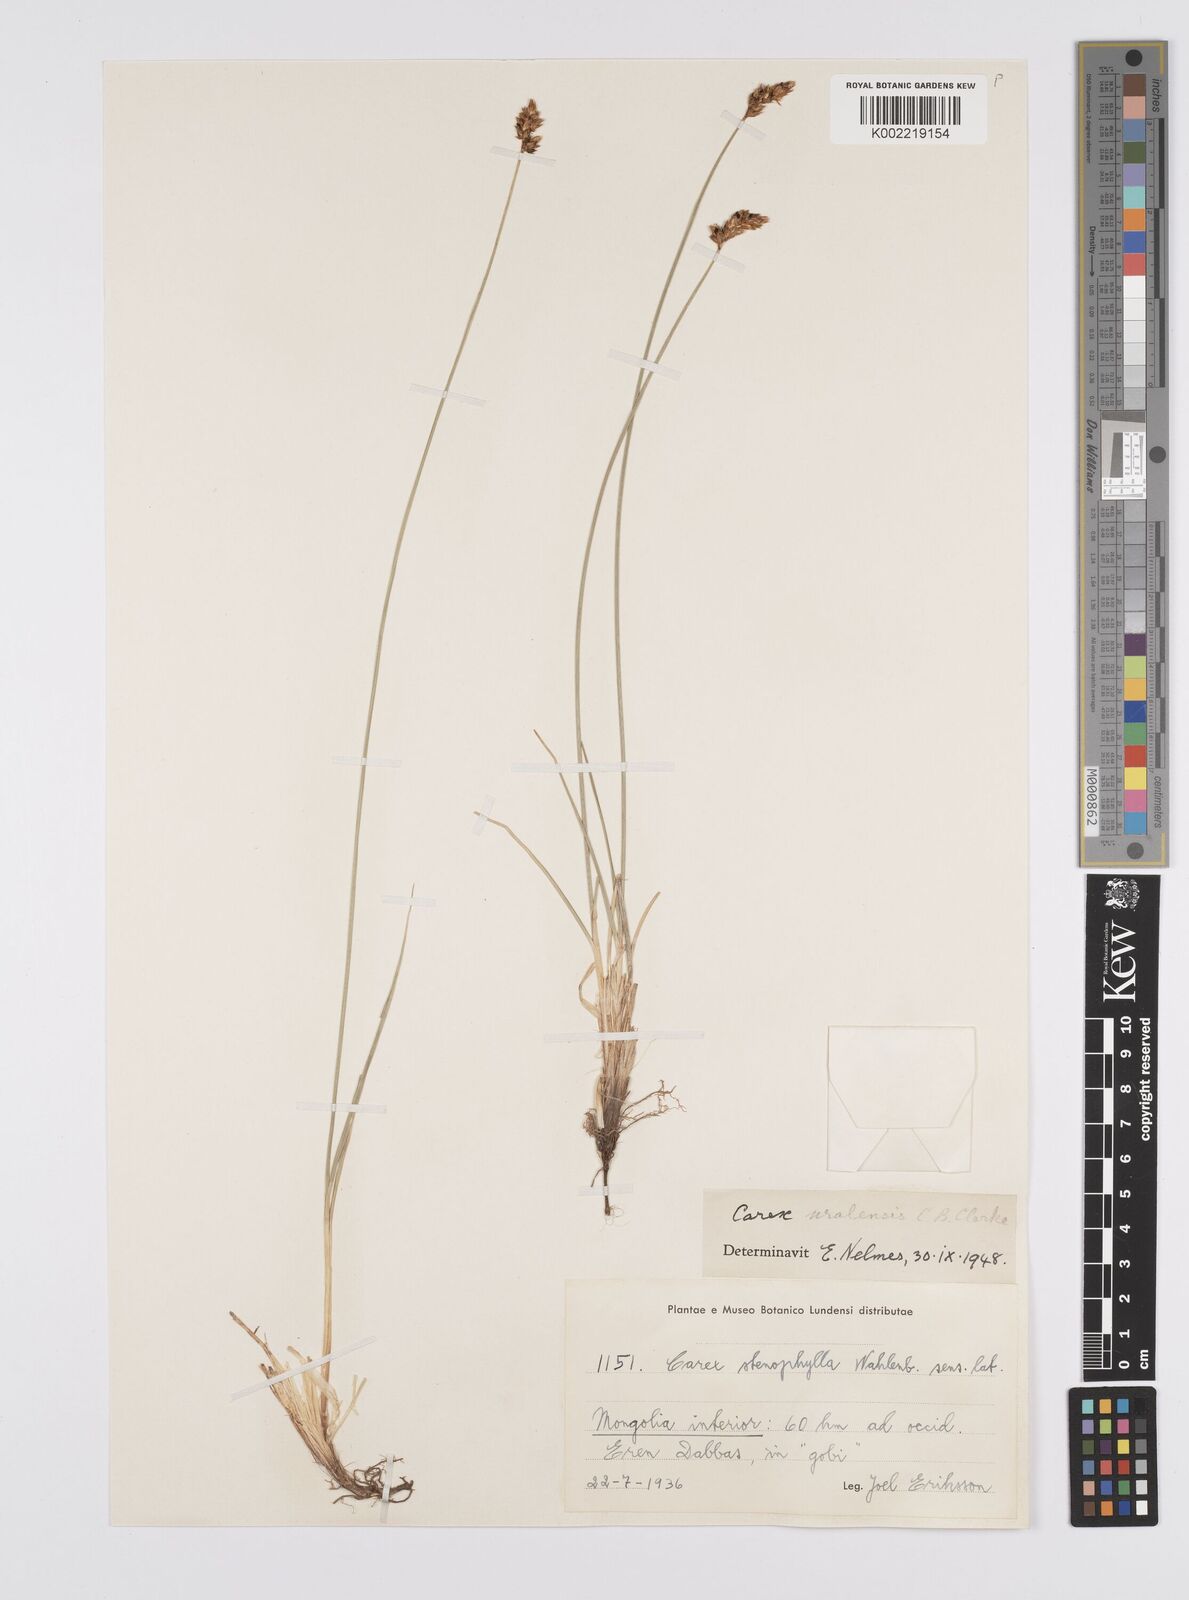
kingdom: Plantae
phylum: Tracheophyta
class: Liliopsida
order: Poales
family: Cyperaceae
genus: Carex
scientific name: Carex stenophylla
